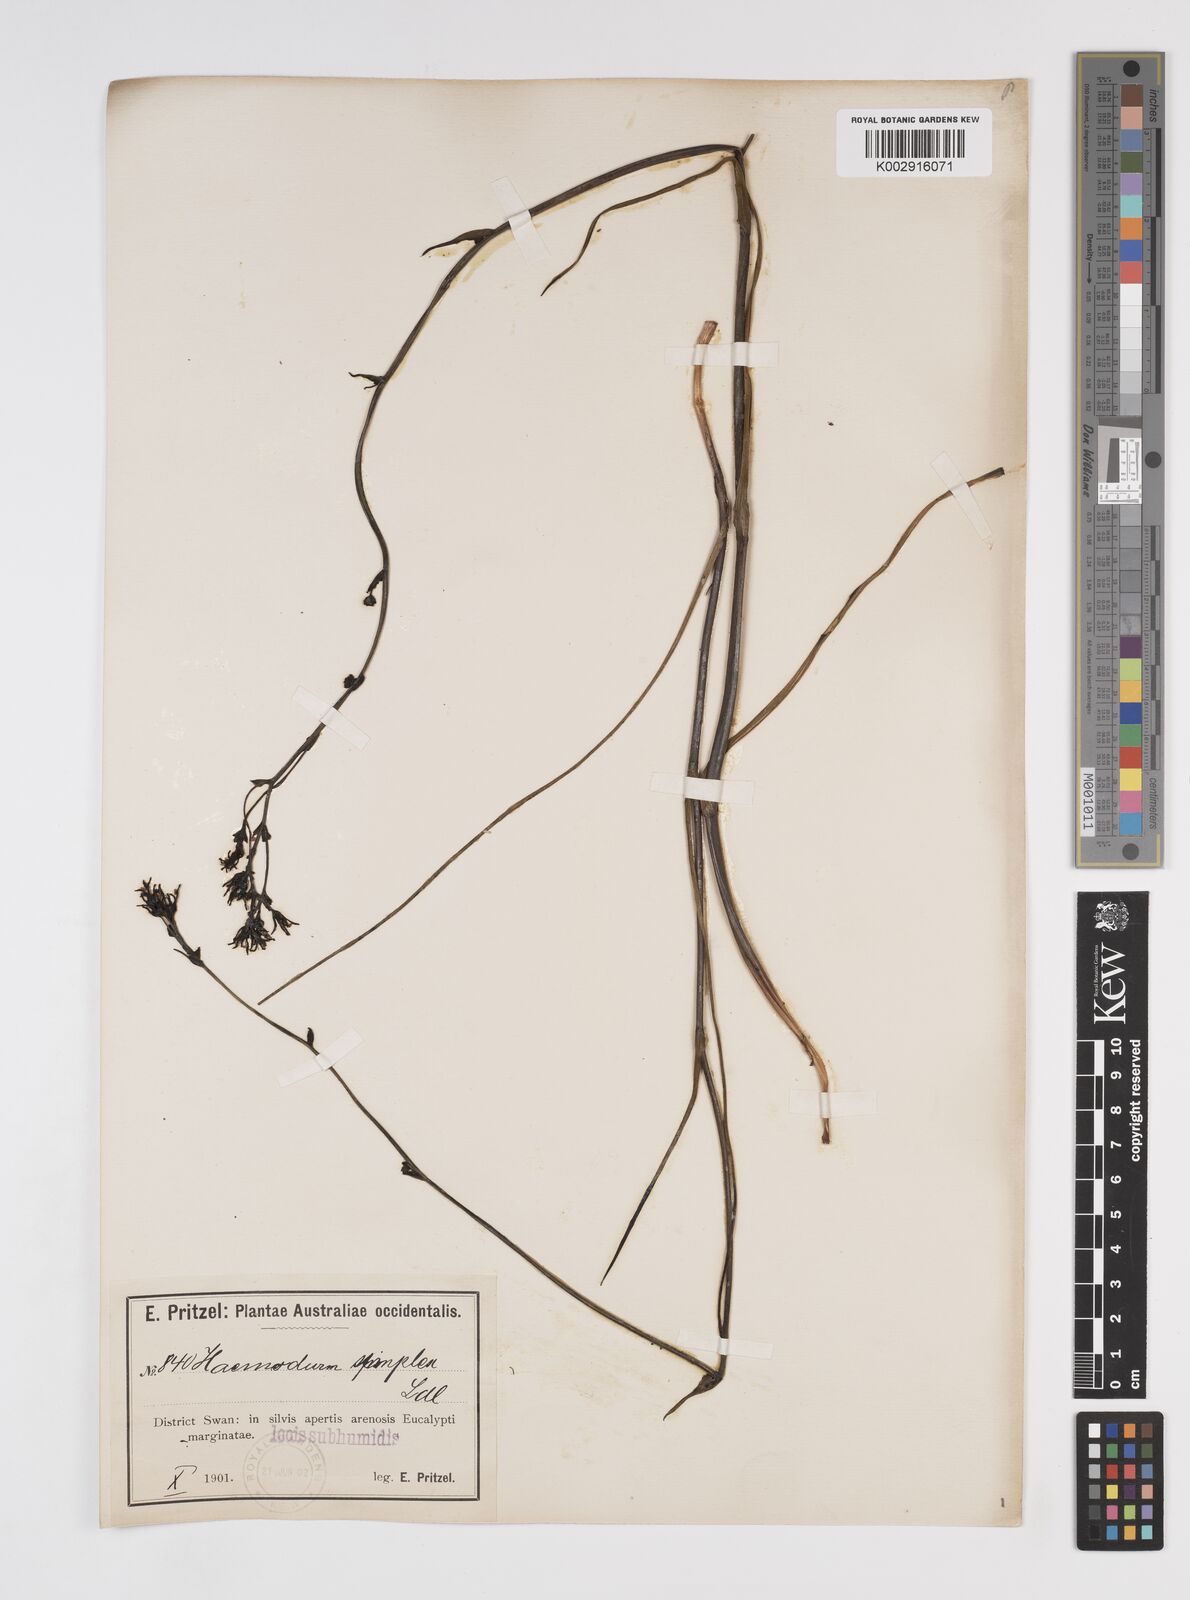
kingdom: Plantae
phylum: Tracheophyta
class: Liliopsida
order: Commelinales
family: Haemodoraceae
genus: Haemodorum
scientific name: Haemodorum laxum
